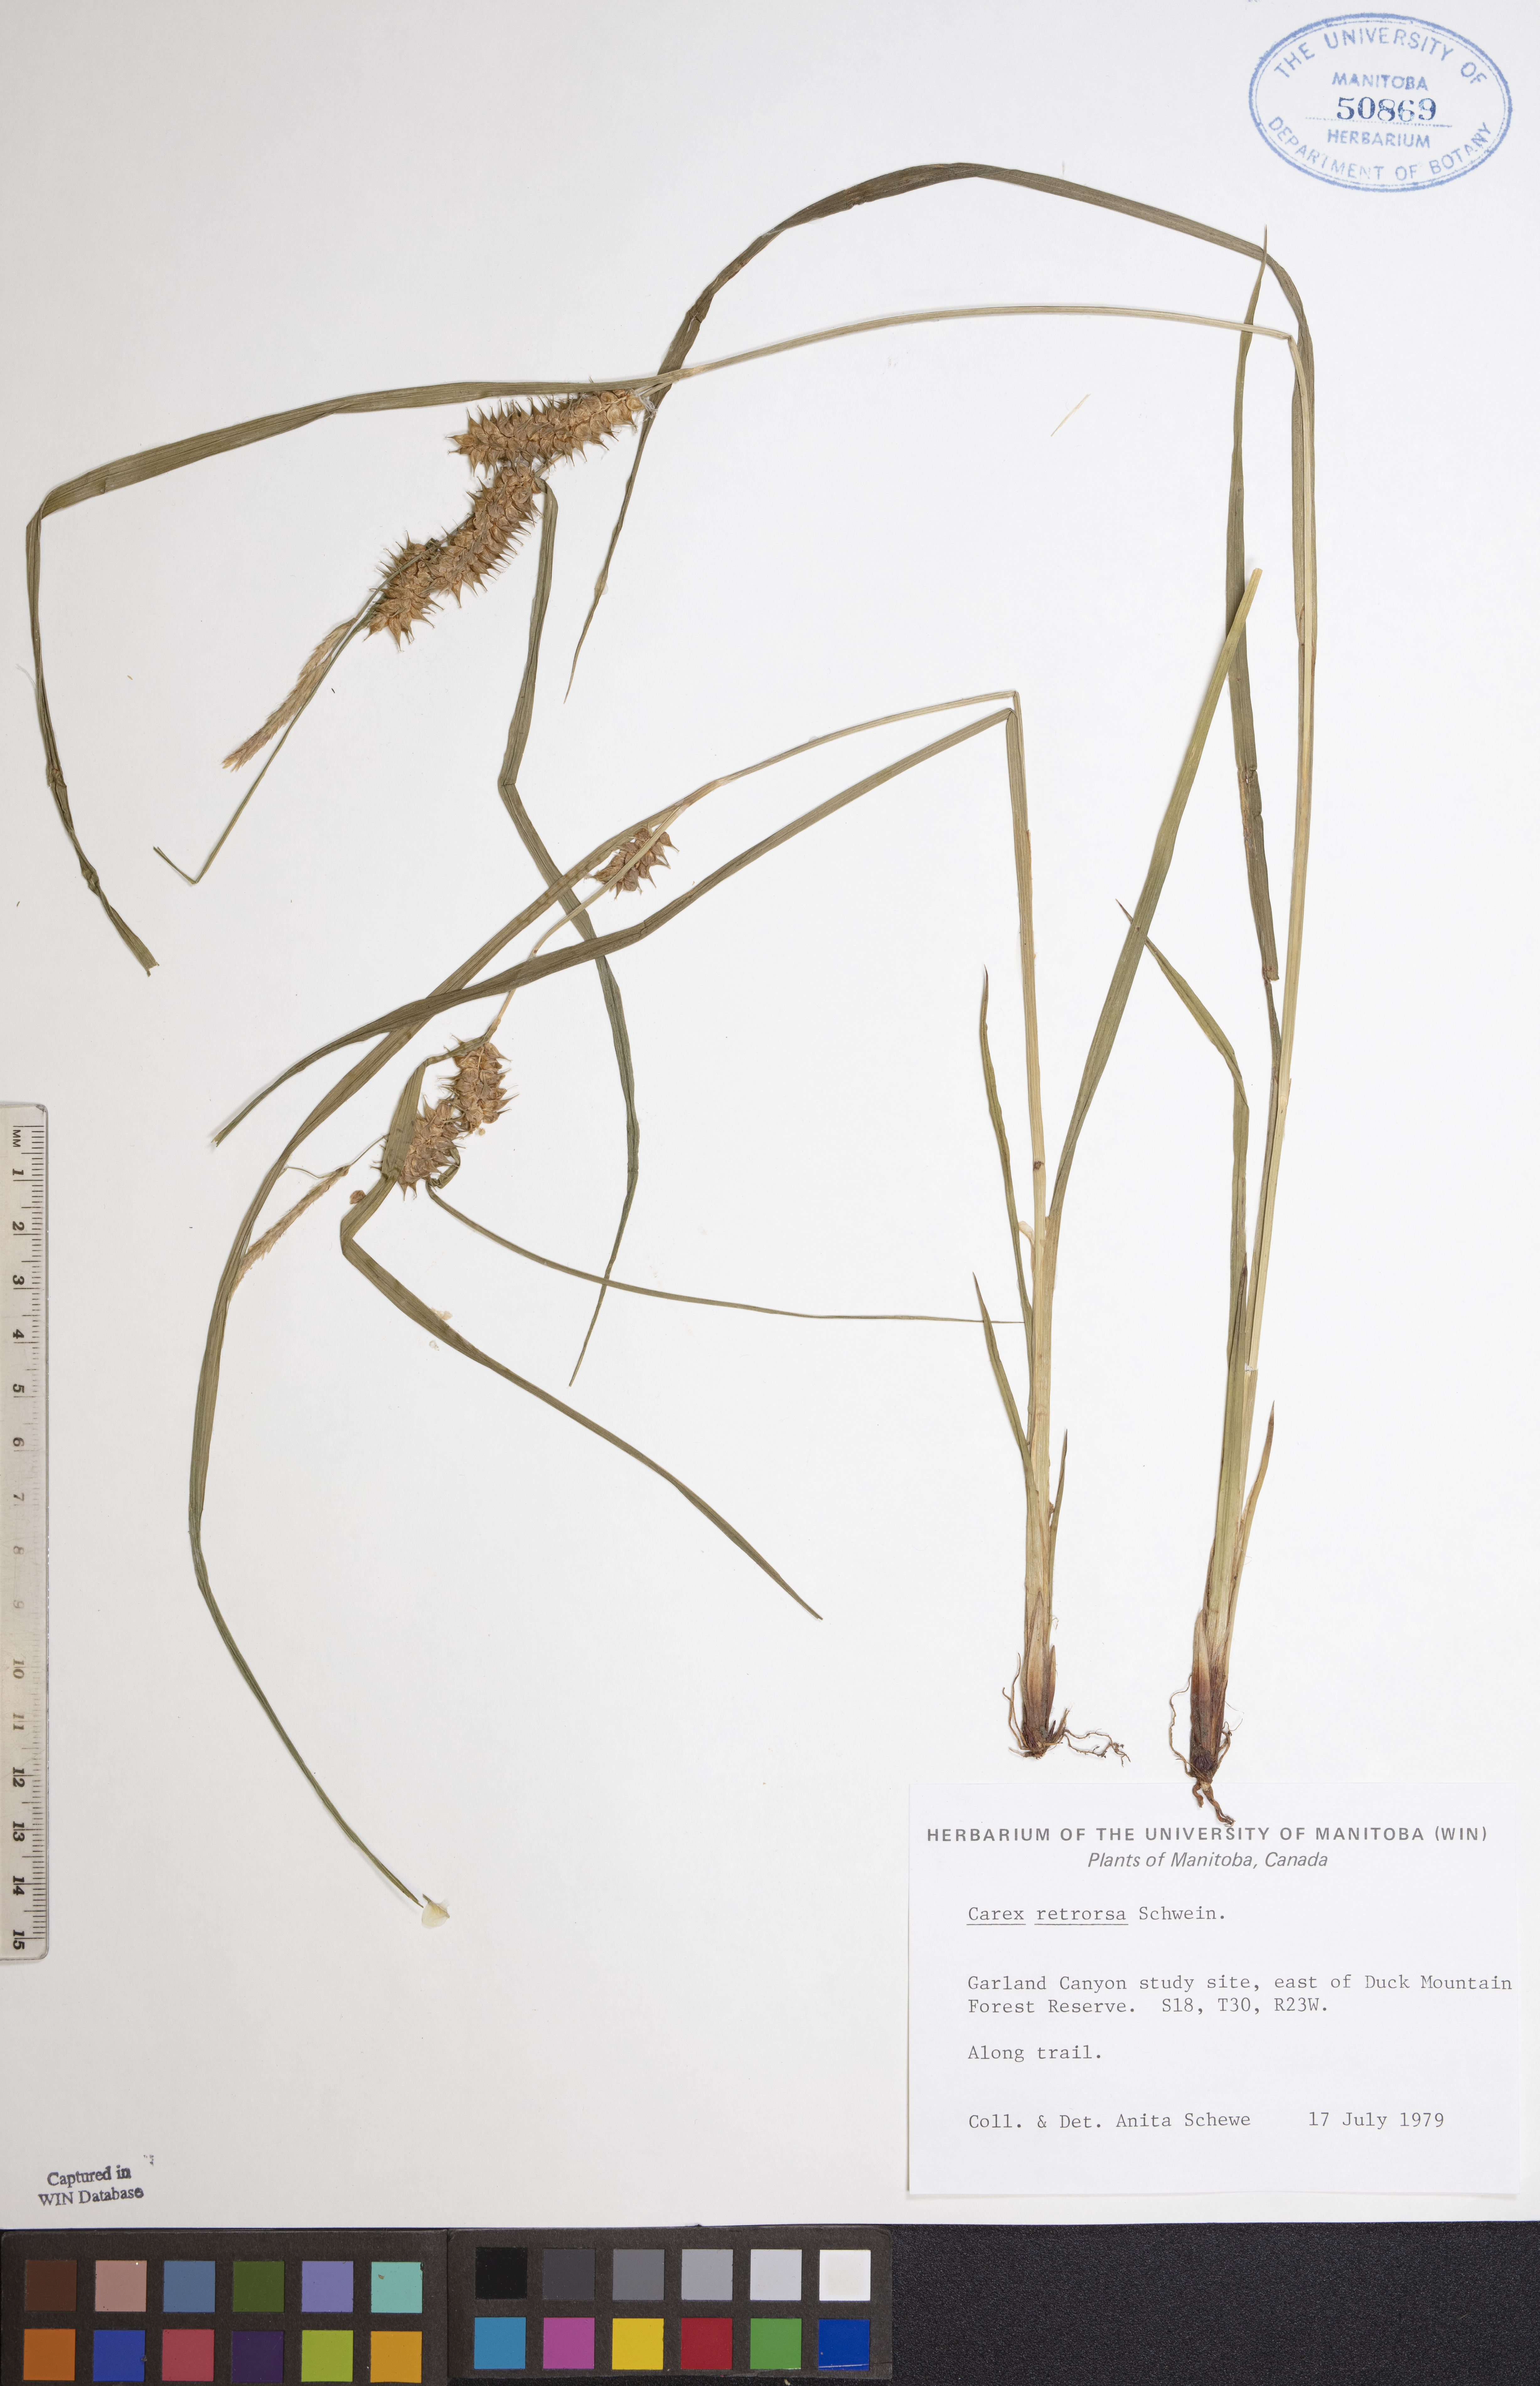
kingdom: Plantae
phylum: Tracheophyta
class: Liliopsida
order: Poales
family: Cyperaceae
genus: Carex
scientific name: Carex retrorsa
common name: Knot-sheath sedge
